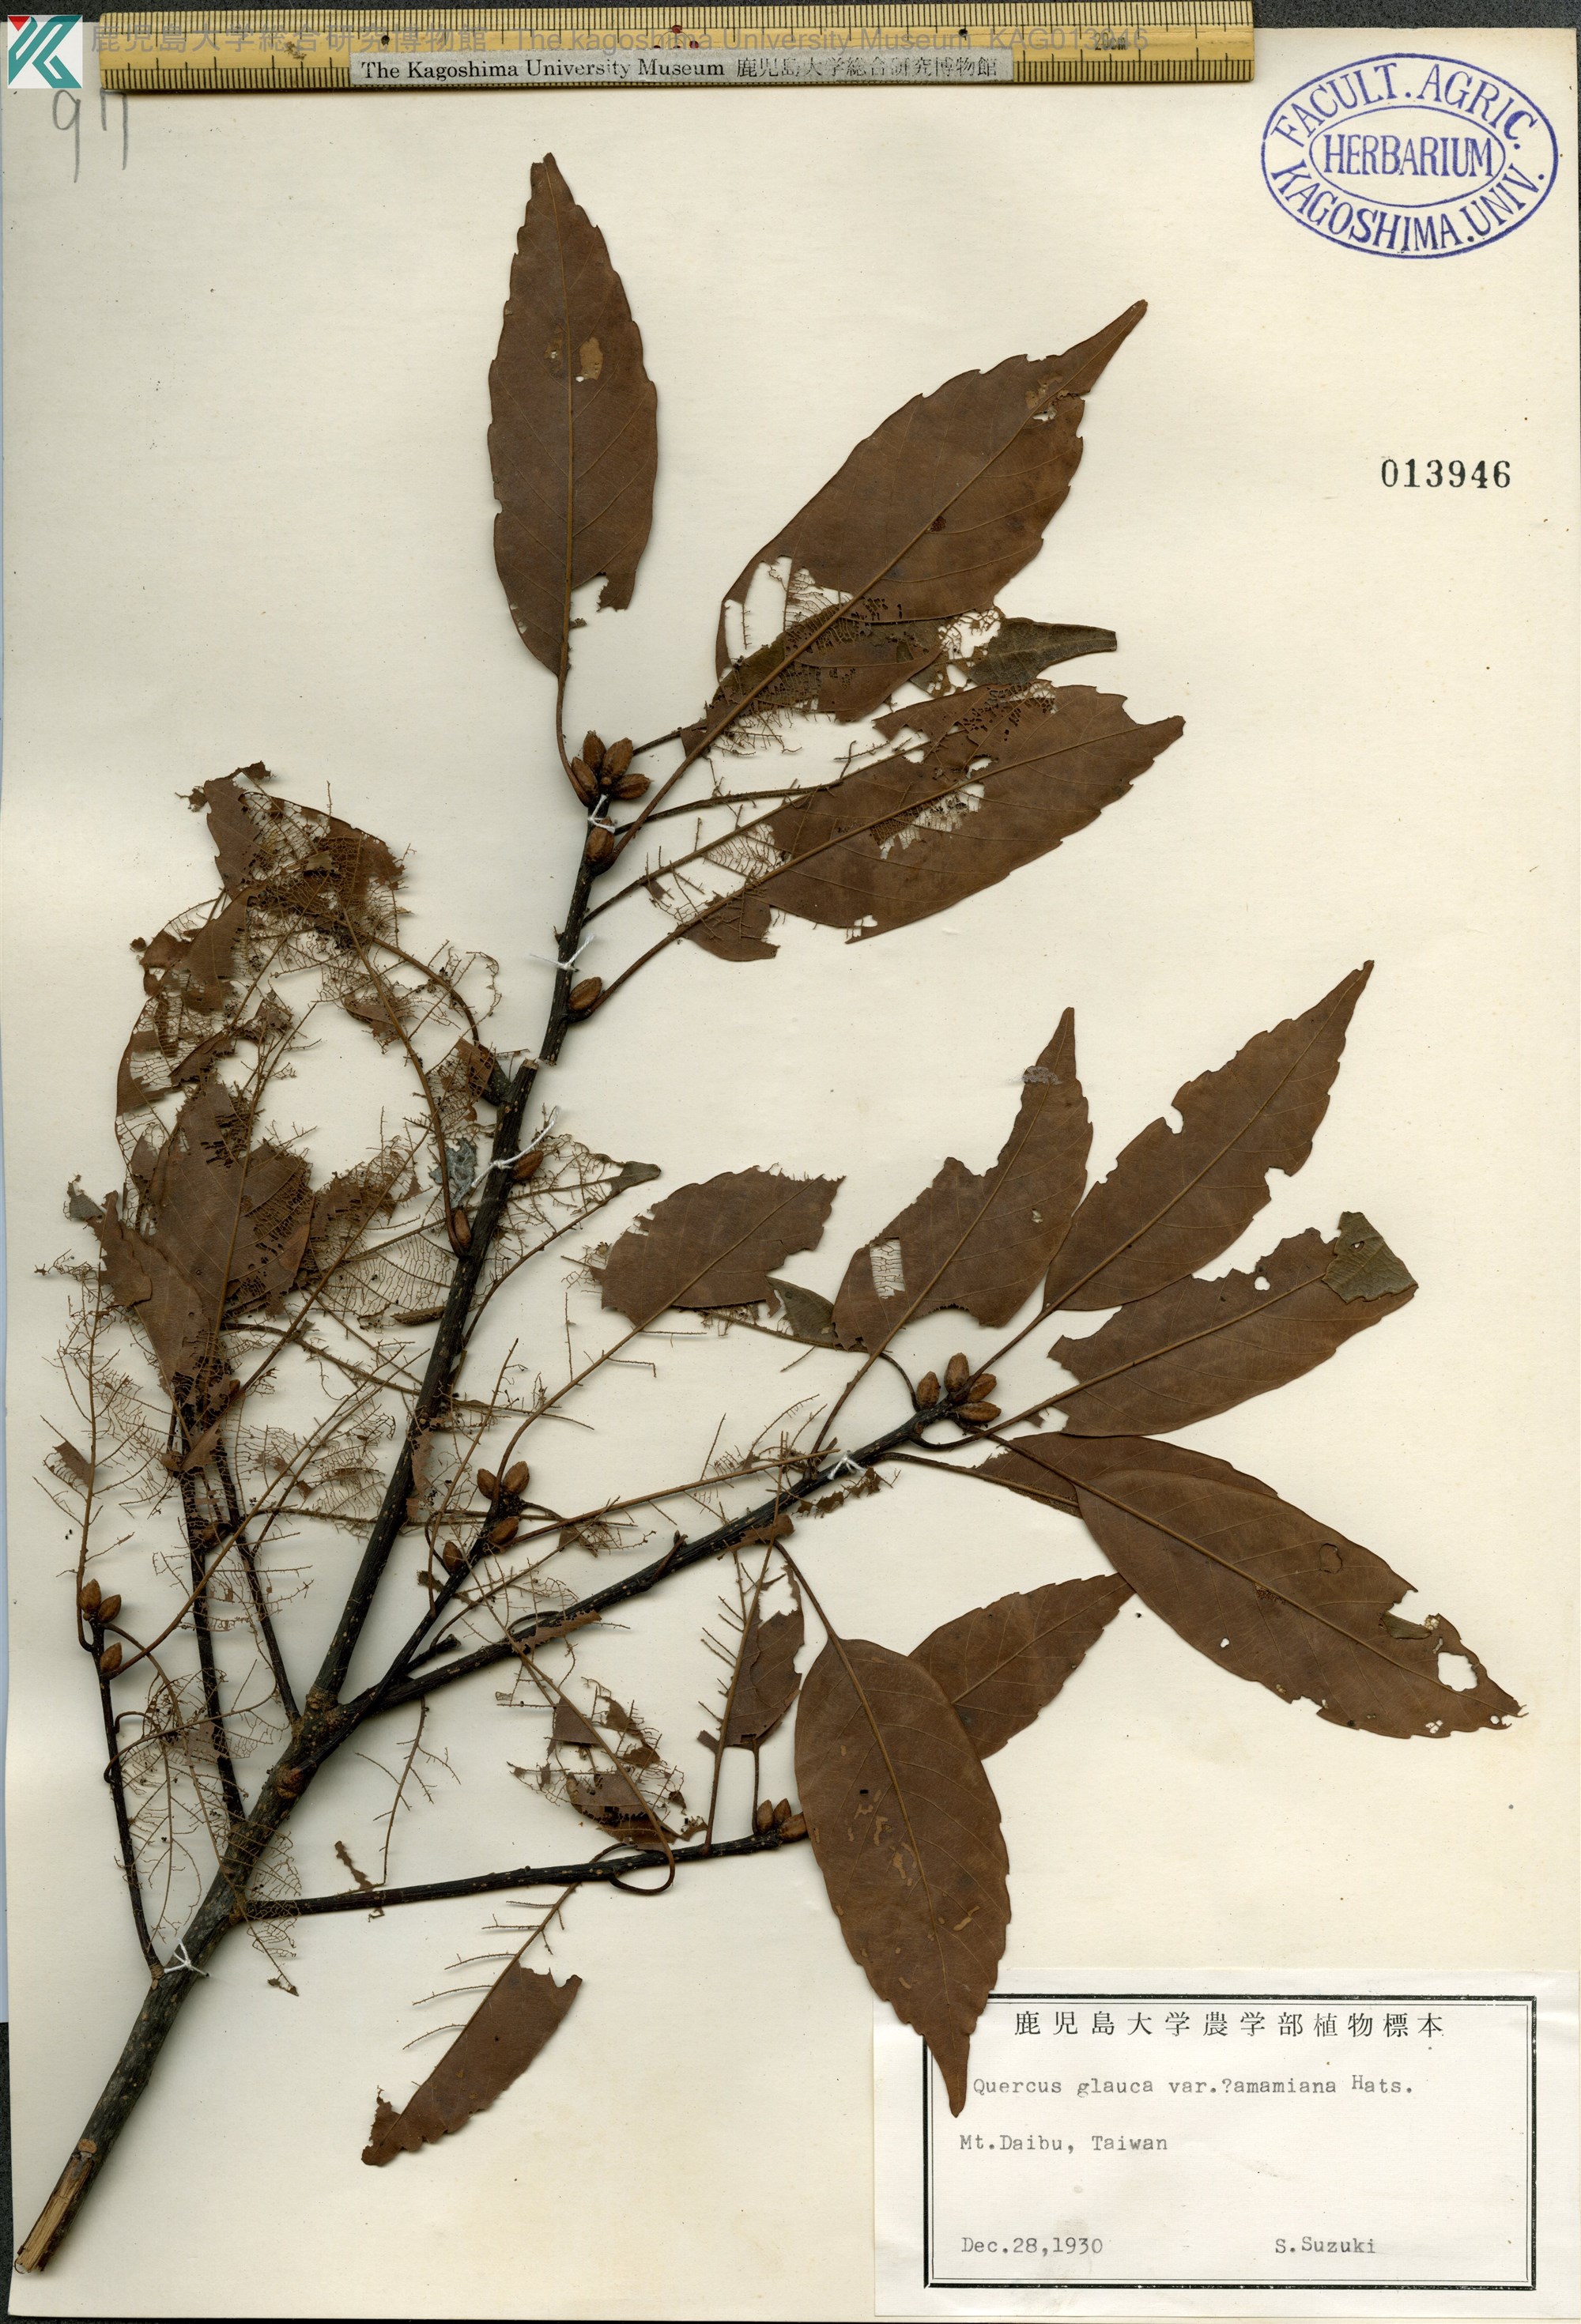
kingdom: Plantae
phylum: Tracheophyta
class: Magnoliopsida
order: Fagales
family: Fagaceae
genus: Quercus
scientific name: Quercus glauca
